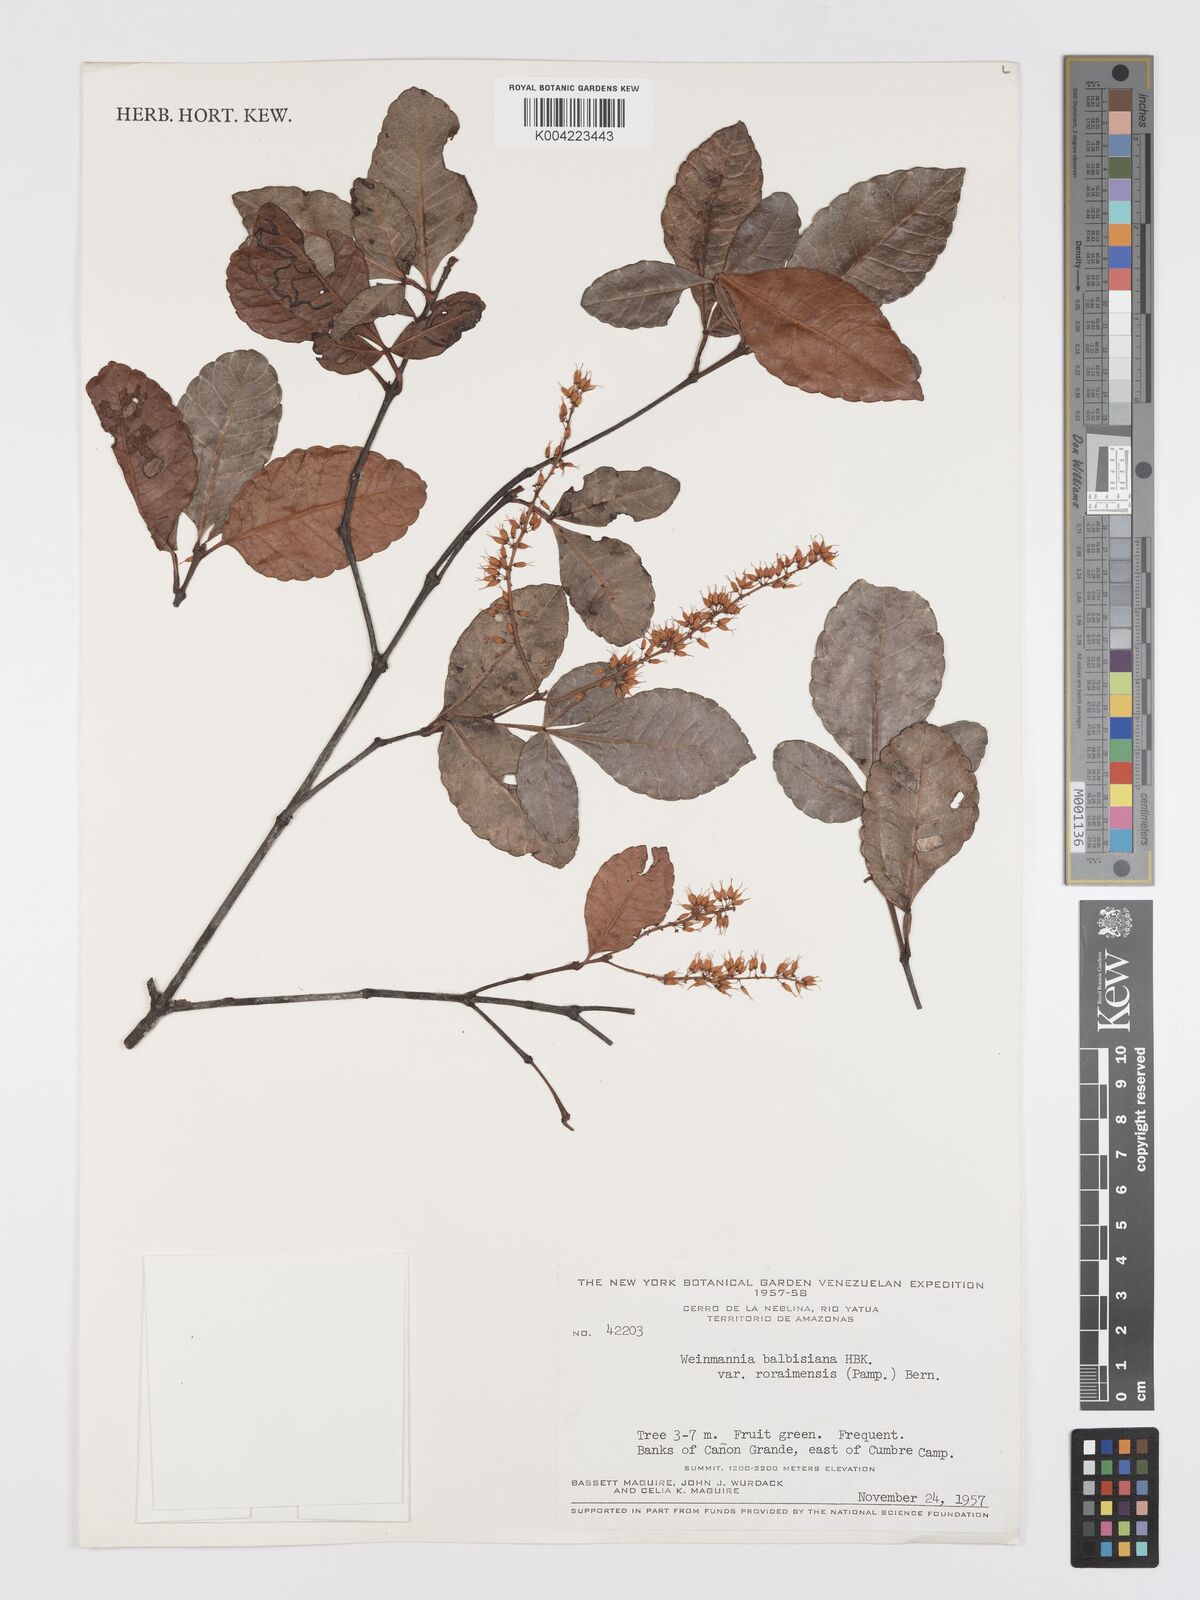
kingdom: Plantae
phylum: Tracheophyta
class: Magnoliopsida
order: Oxalidales
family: Cunoniaceae
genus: Weinmannia
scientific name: Weinmannia elliptica
